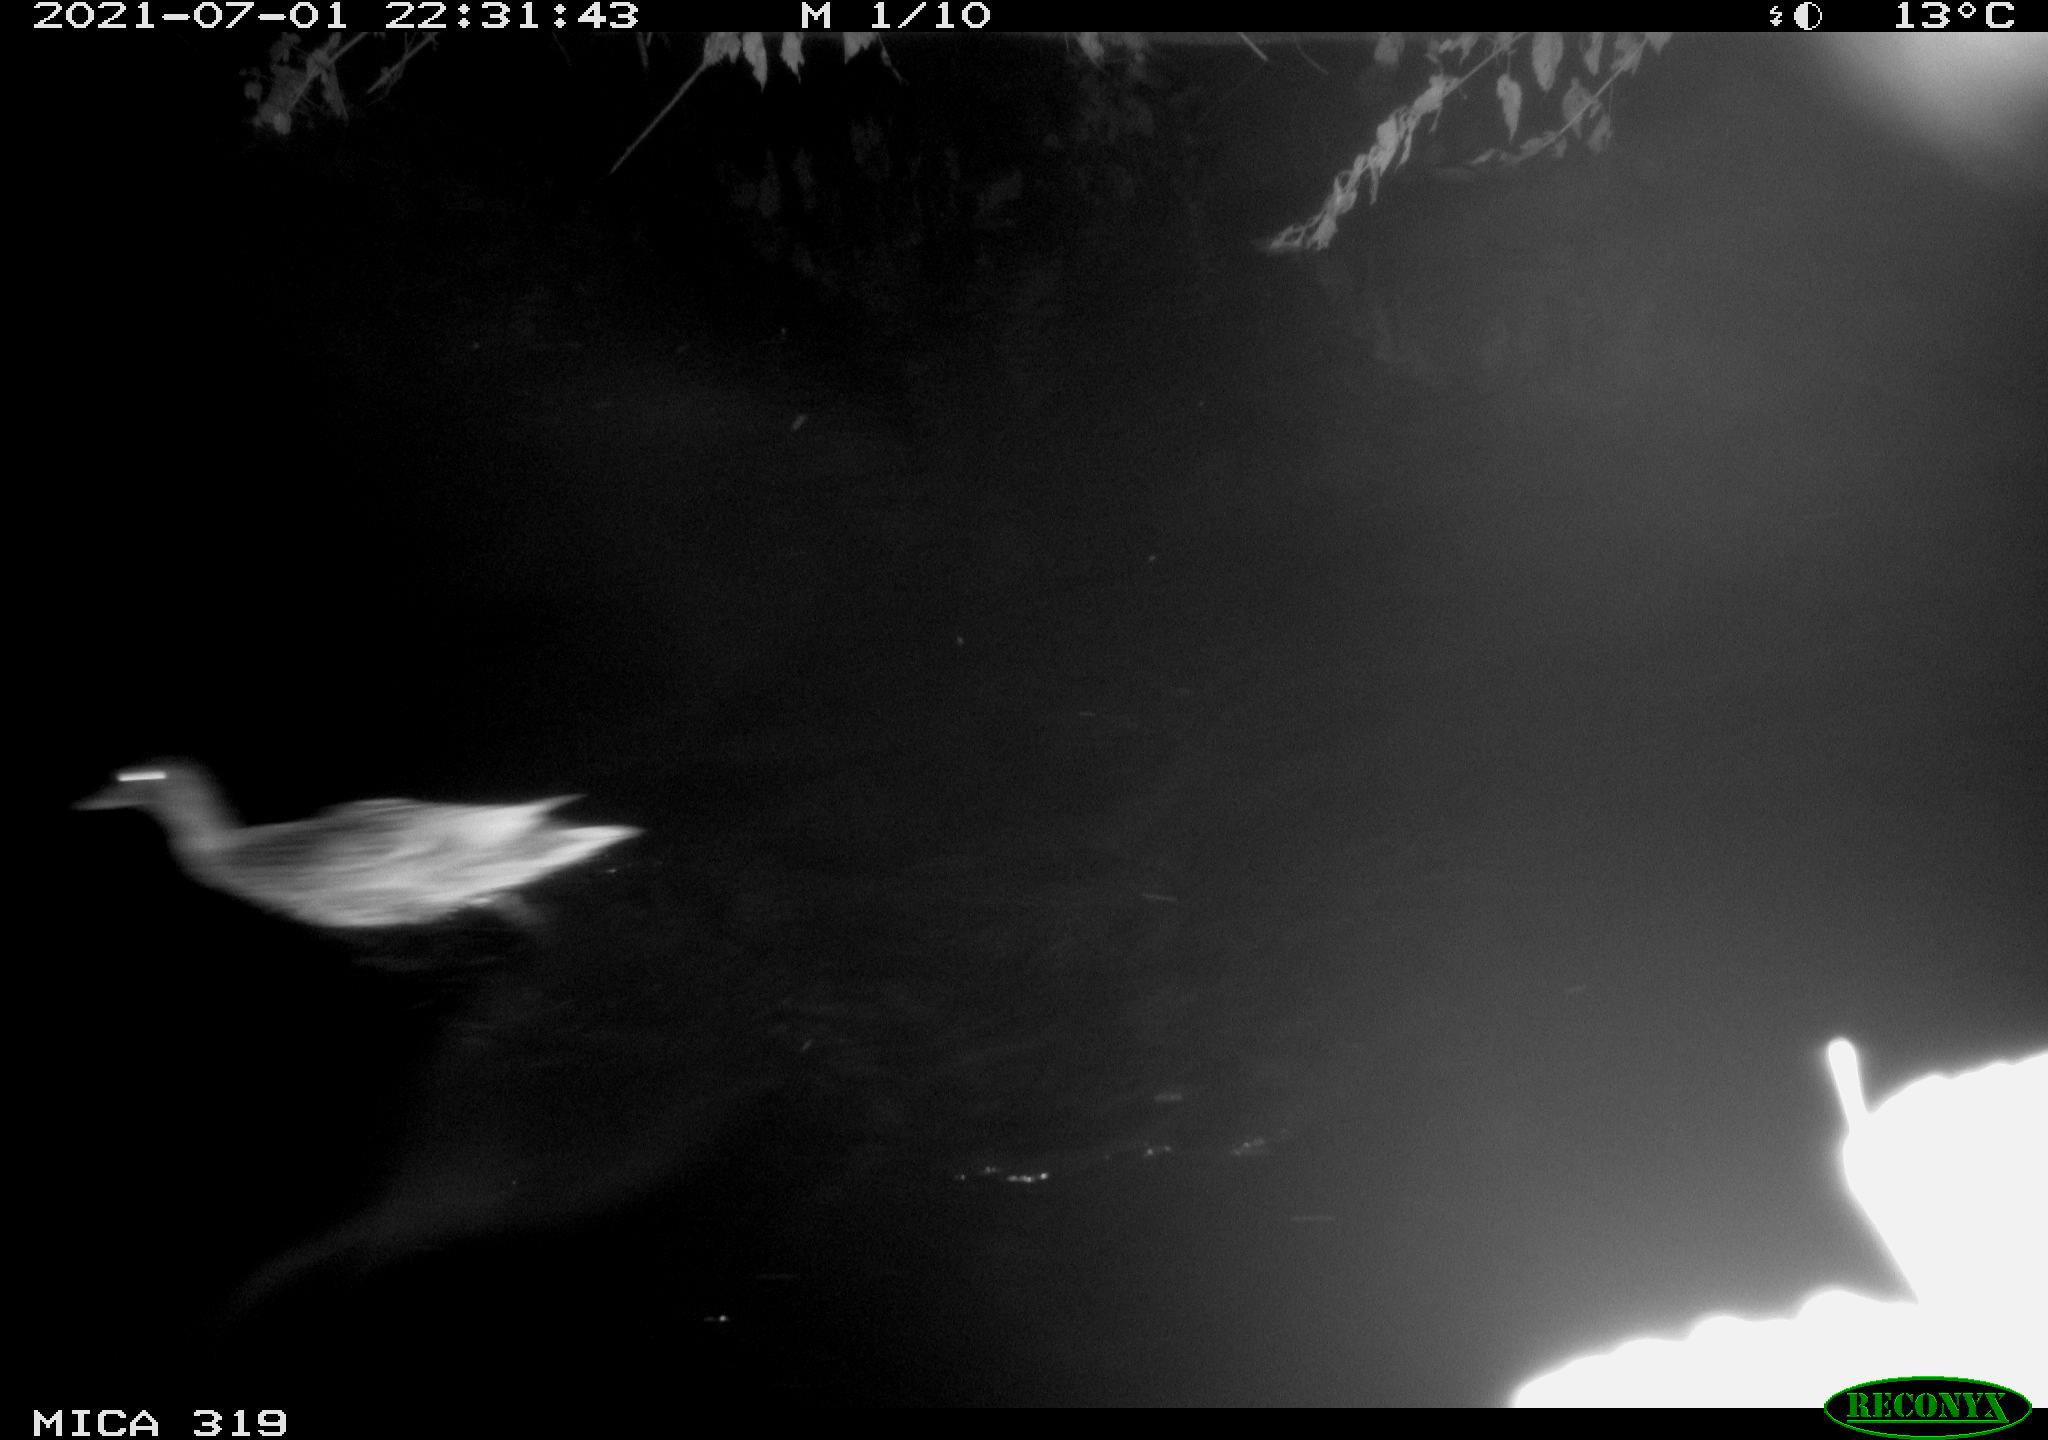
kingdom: Animalia
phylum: Chordata
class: Aves
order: Anseriformes
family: Anatidae
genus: Anas
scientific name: Anas platyrhynchos
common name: Mallard
